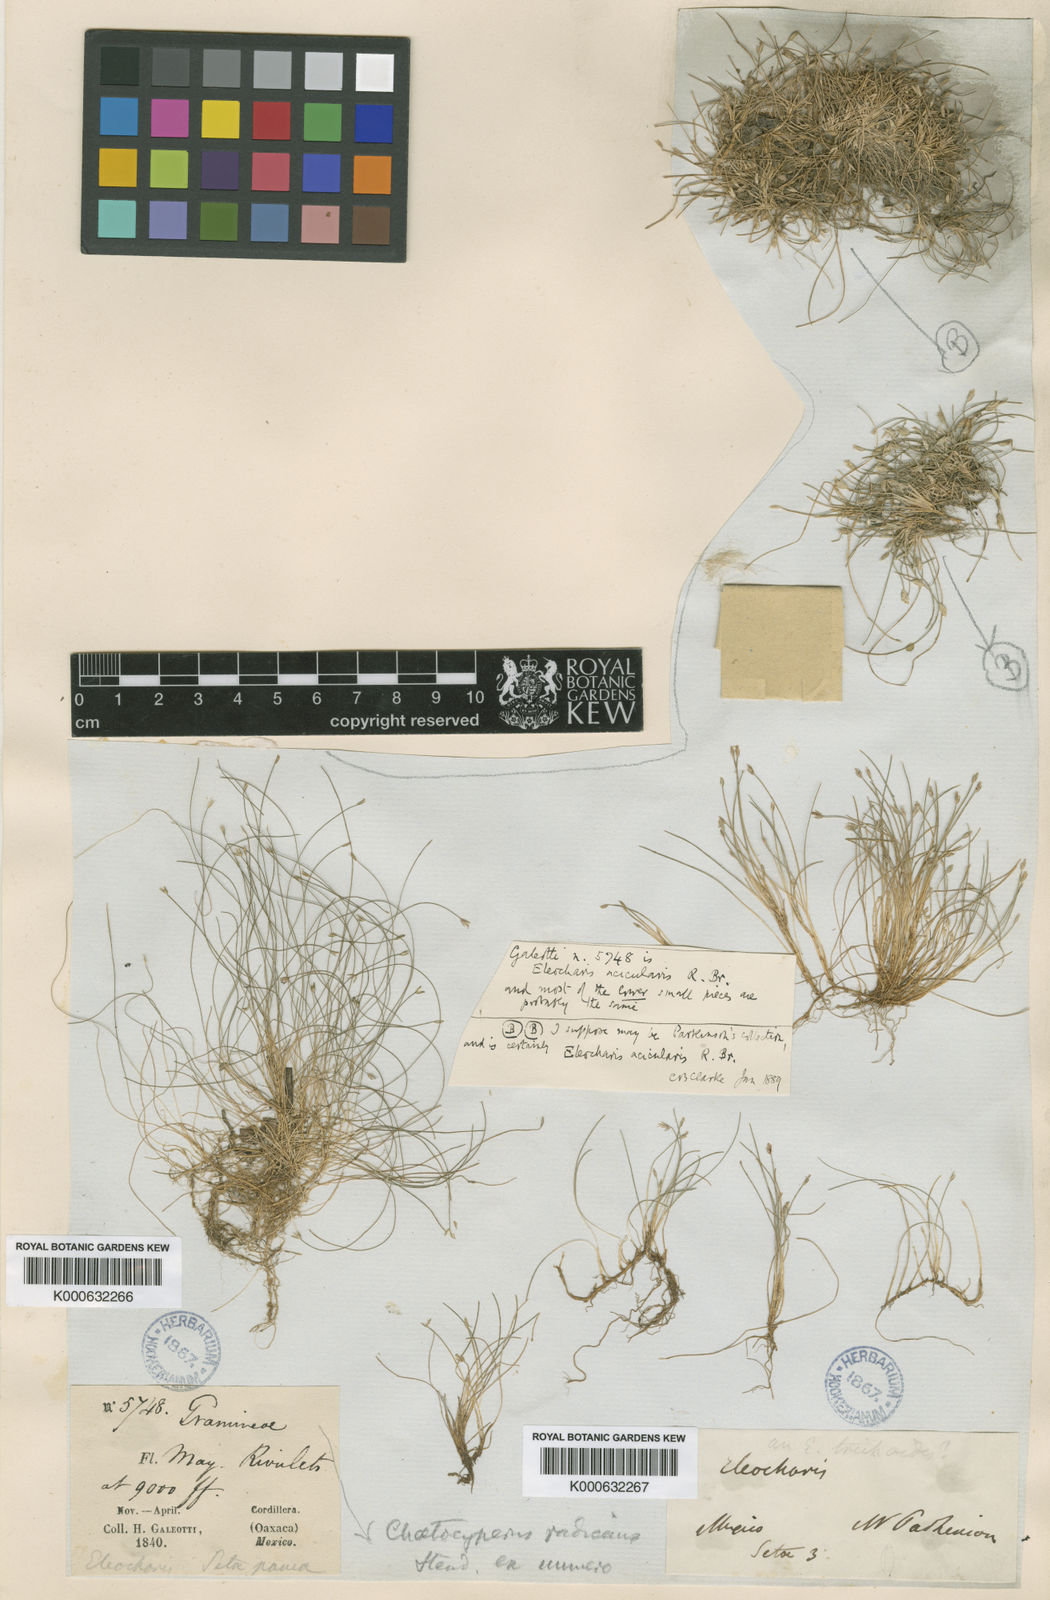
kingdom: Plantae
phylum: Tracheophyta
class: Liliopsida
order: Poales
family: Cyperaceae
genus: Eleocharis
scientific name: Eleocharis retroflexa
